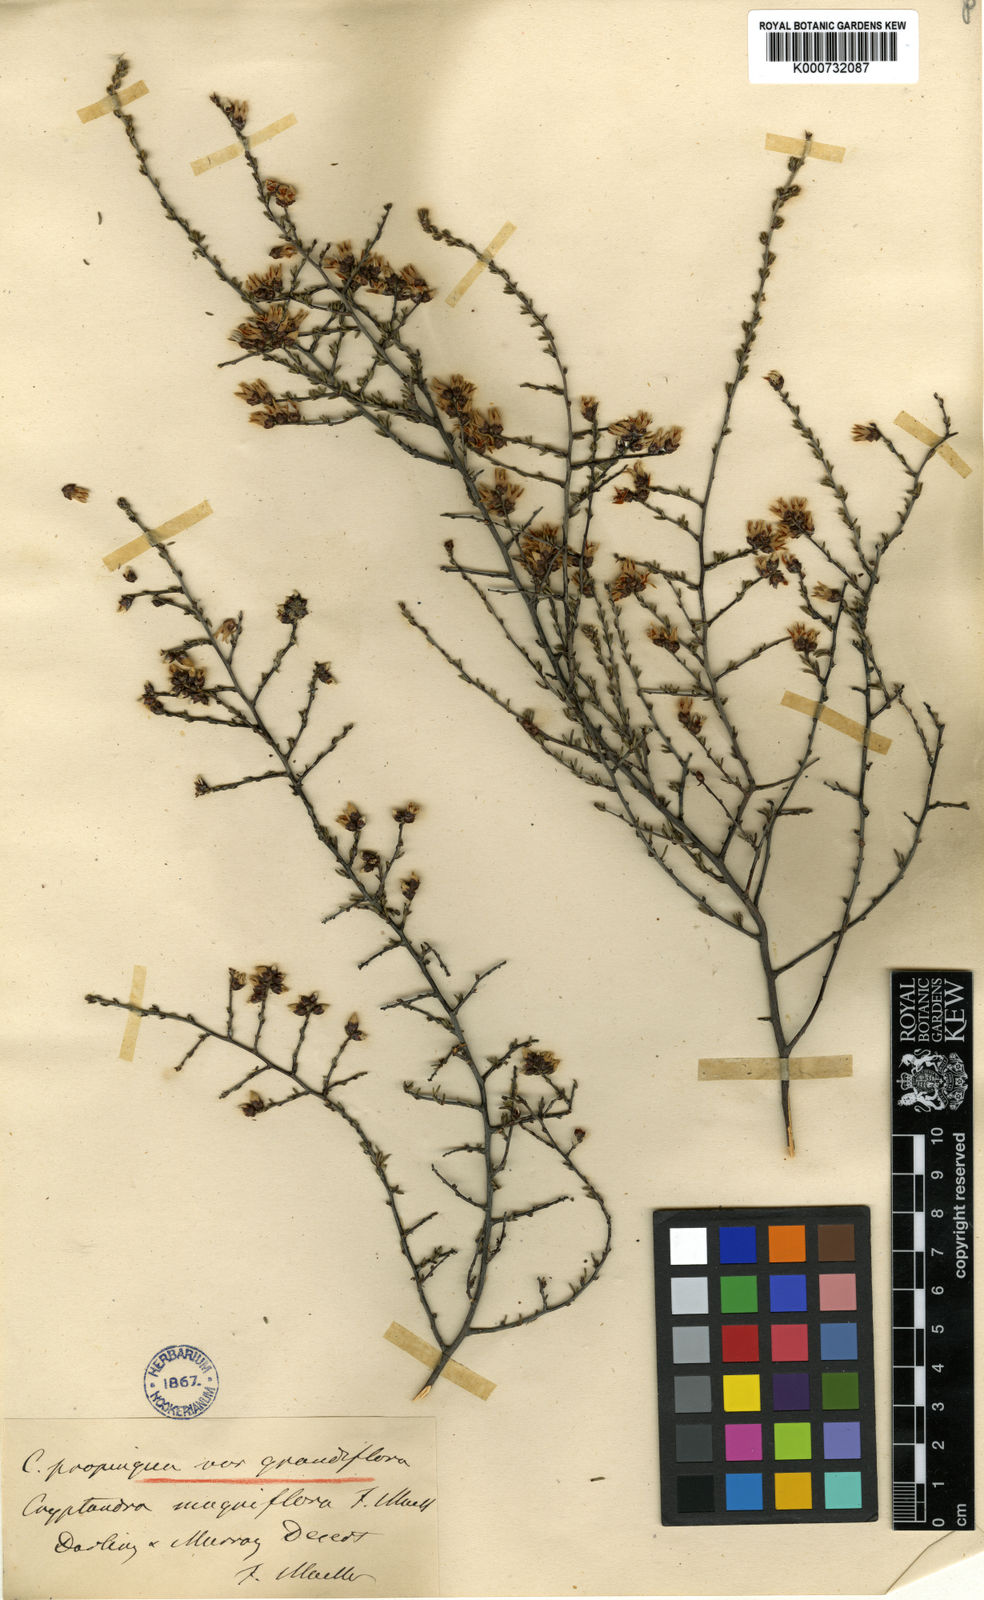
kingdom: Plantae
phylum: Tracheophyta
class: Magnoliopsida
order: Rosales
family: Rhamnaceae
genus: Cryptandra
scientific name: Cryptandra propinqua
